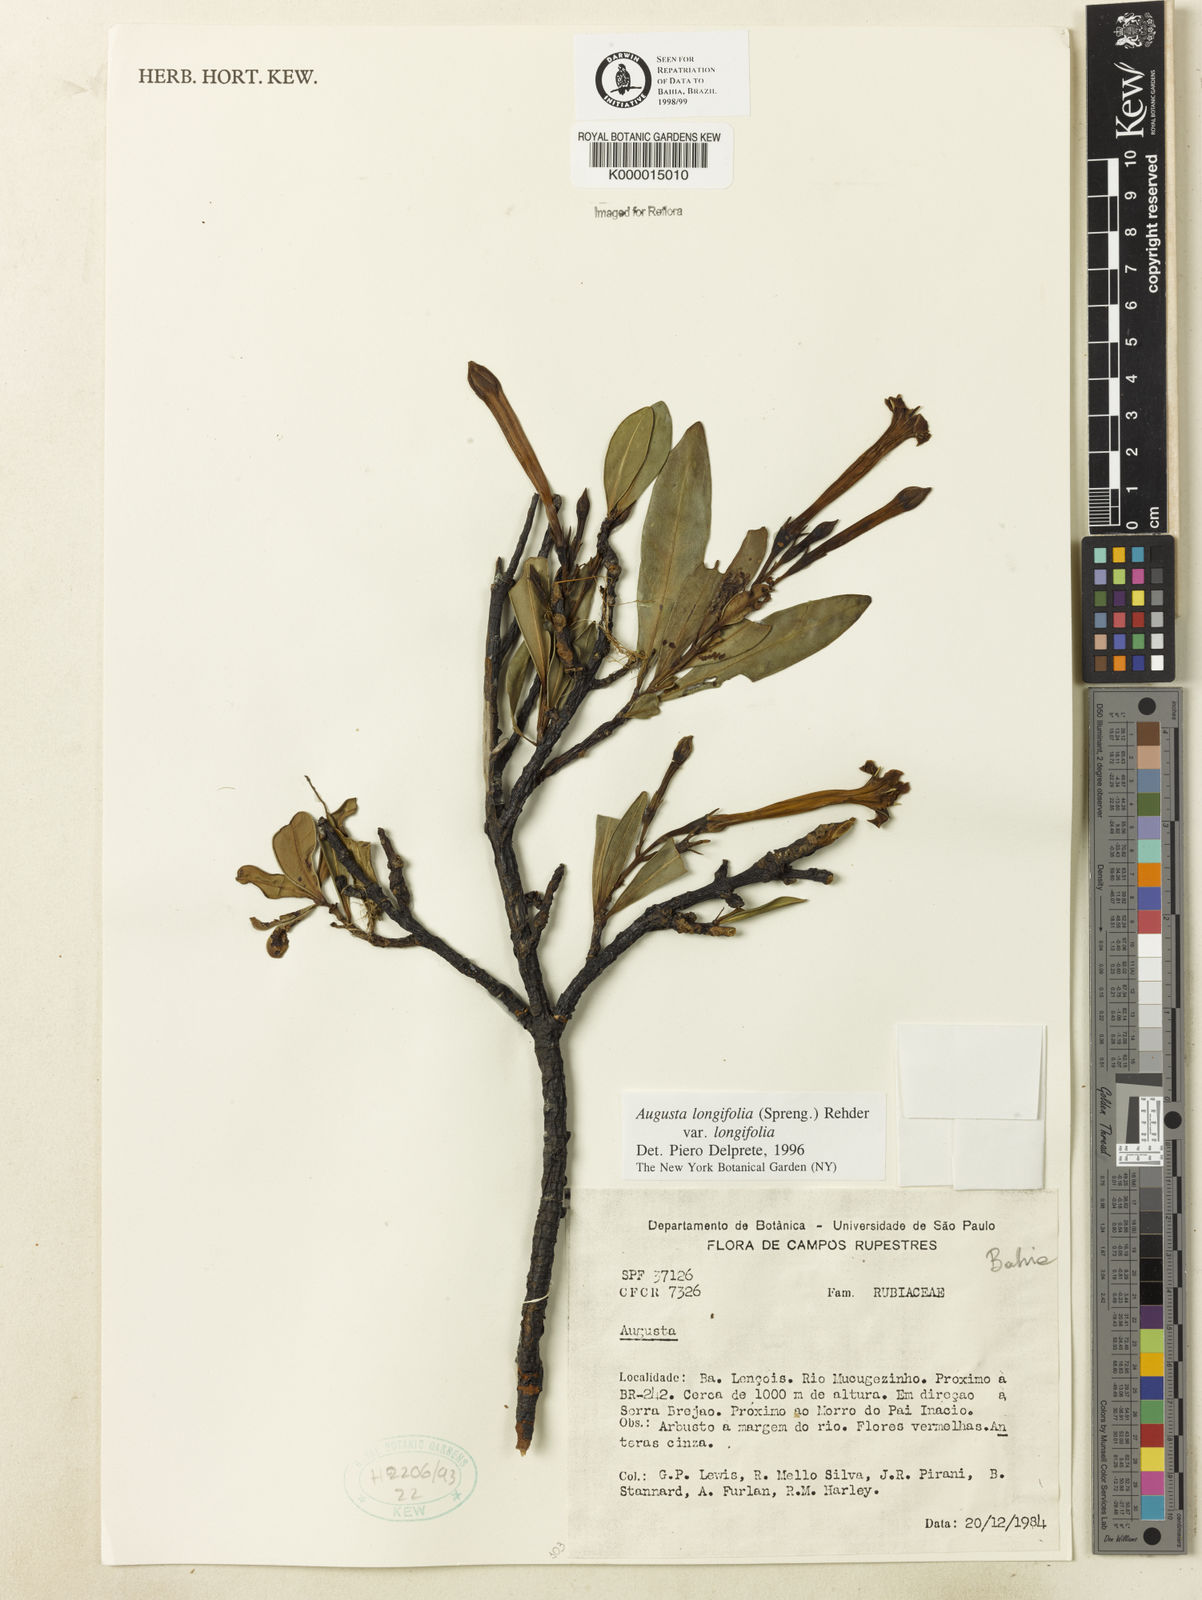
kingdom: Plantae
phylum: Tracheophyta
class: Magnoliopsida
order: Gentianales
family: Rubiaceae
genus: Augusta
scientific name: Augusta longifolia
